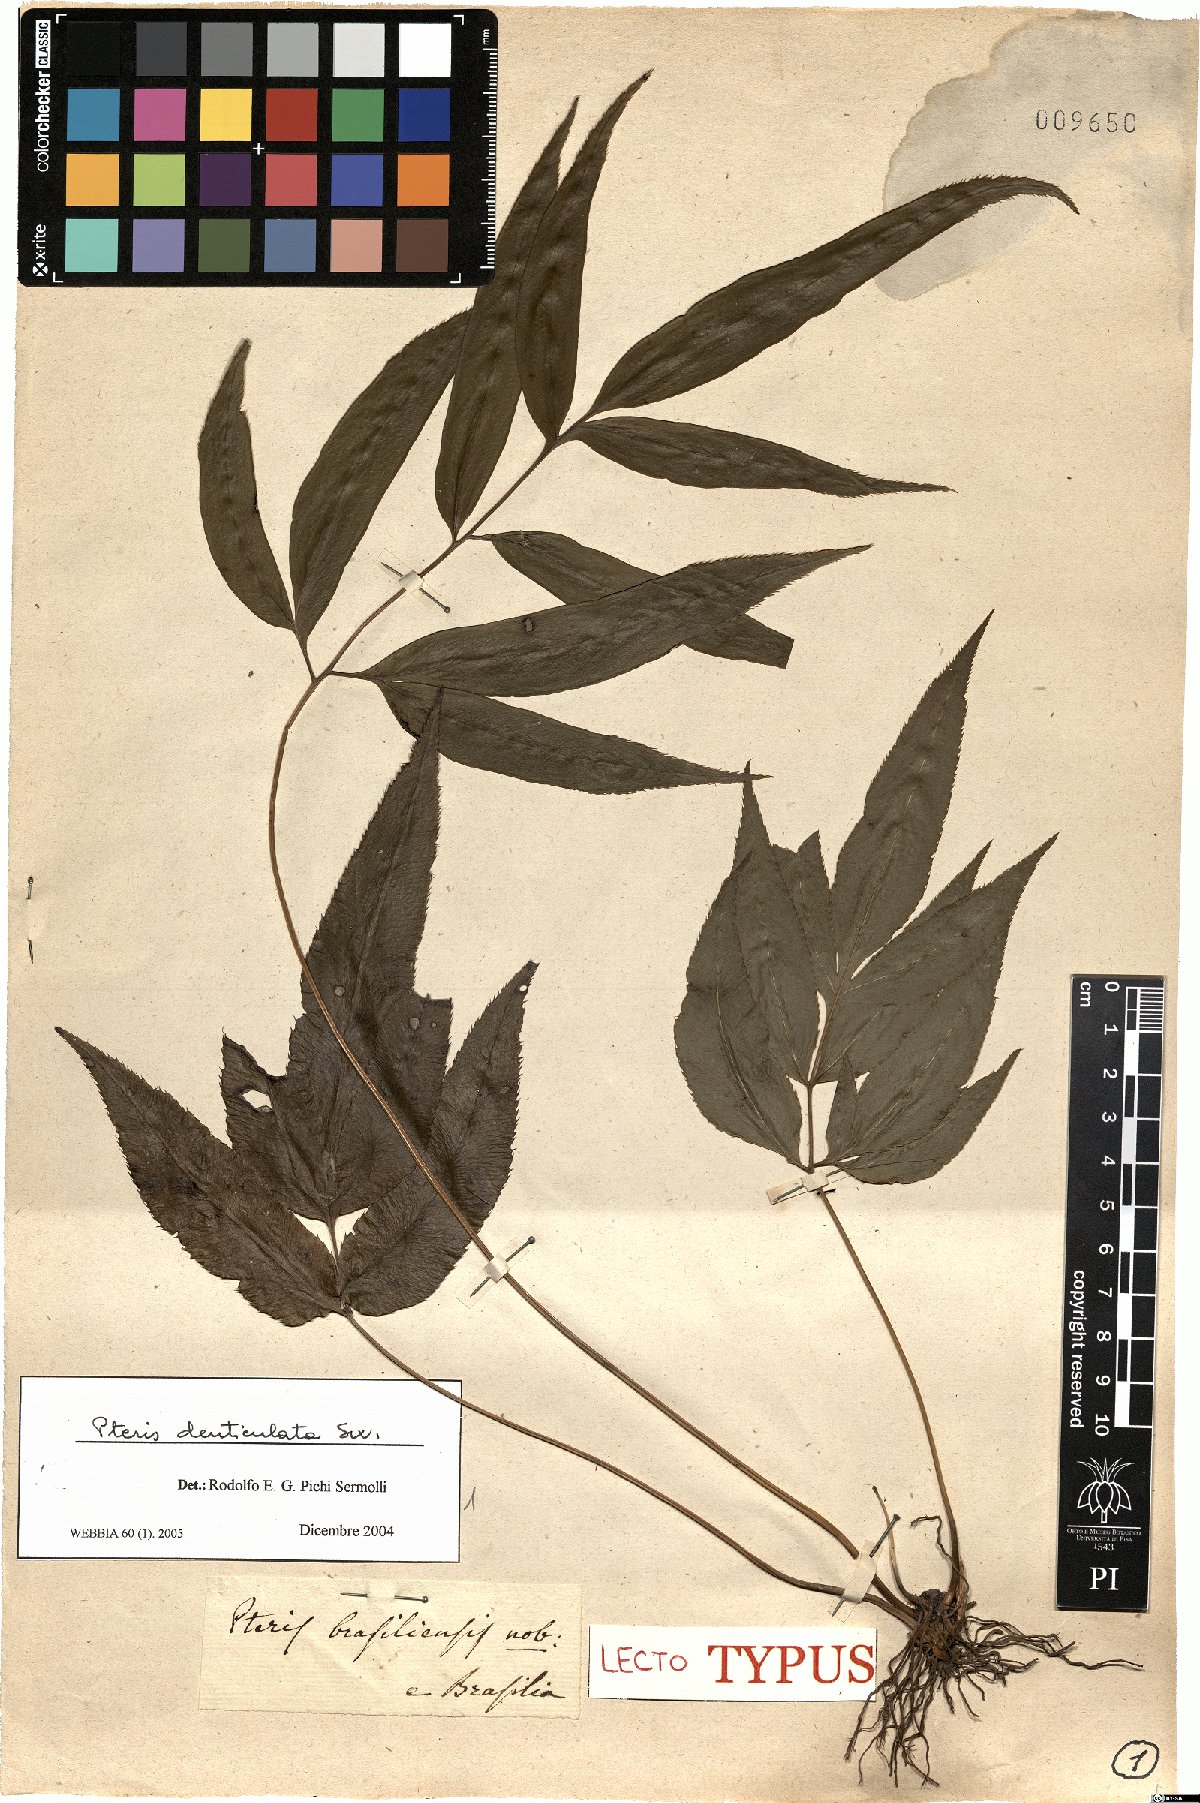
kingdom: Plantae
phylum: Tracheophyta
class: Polypodiopsida
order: Polypodiales
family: Pteridaceae
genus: Pteris
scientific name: Pteris denticulata
